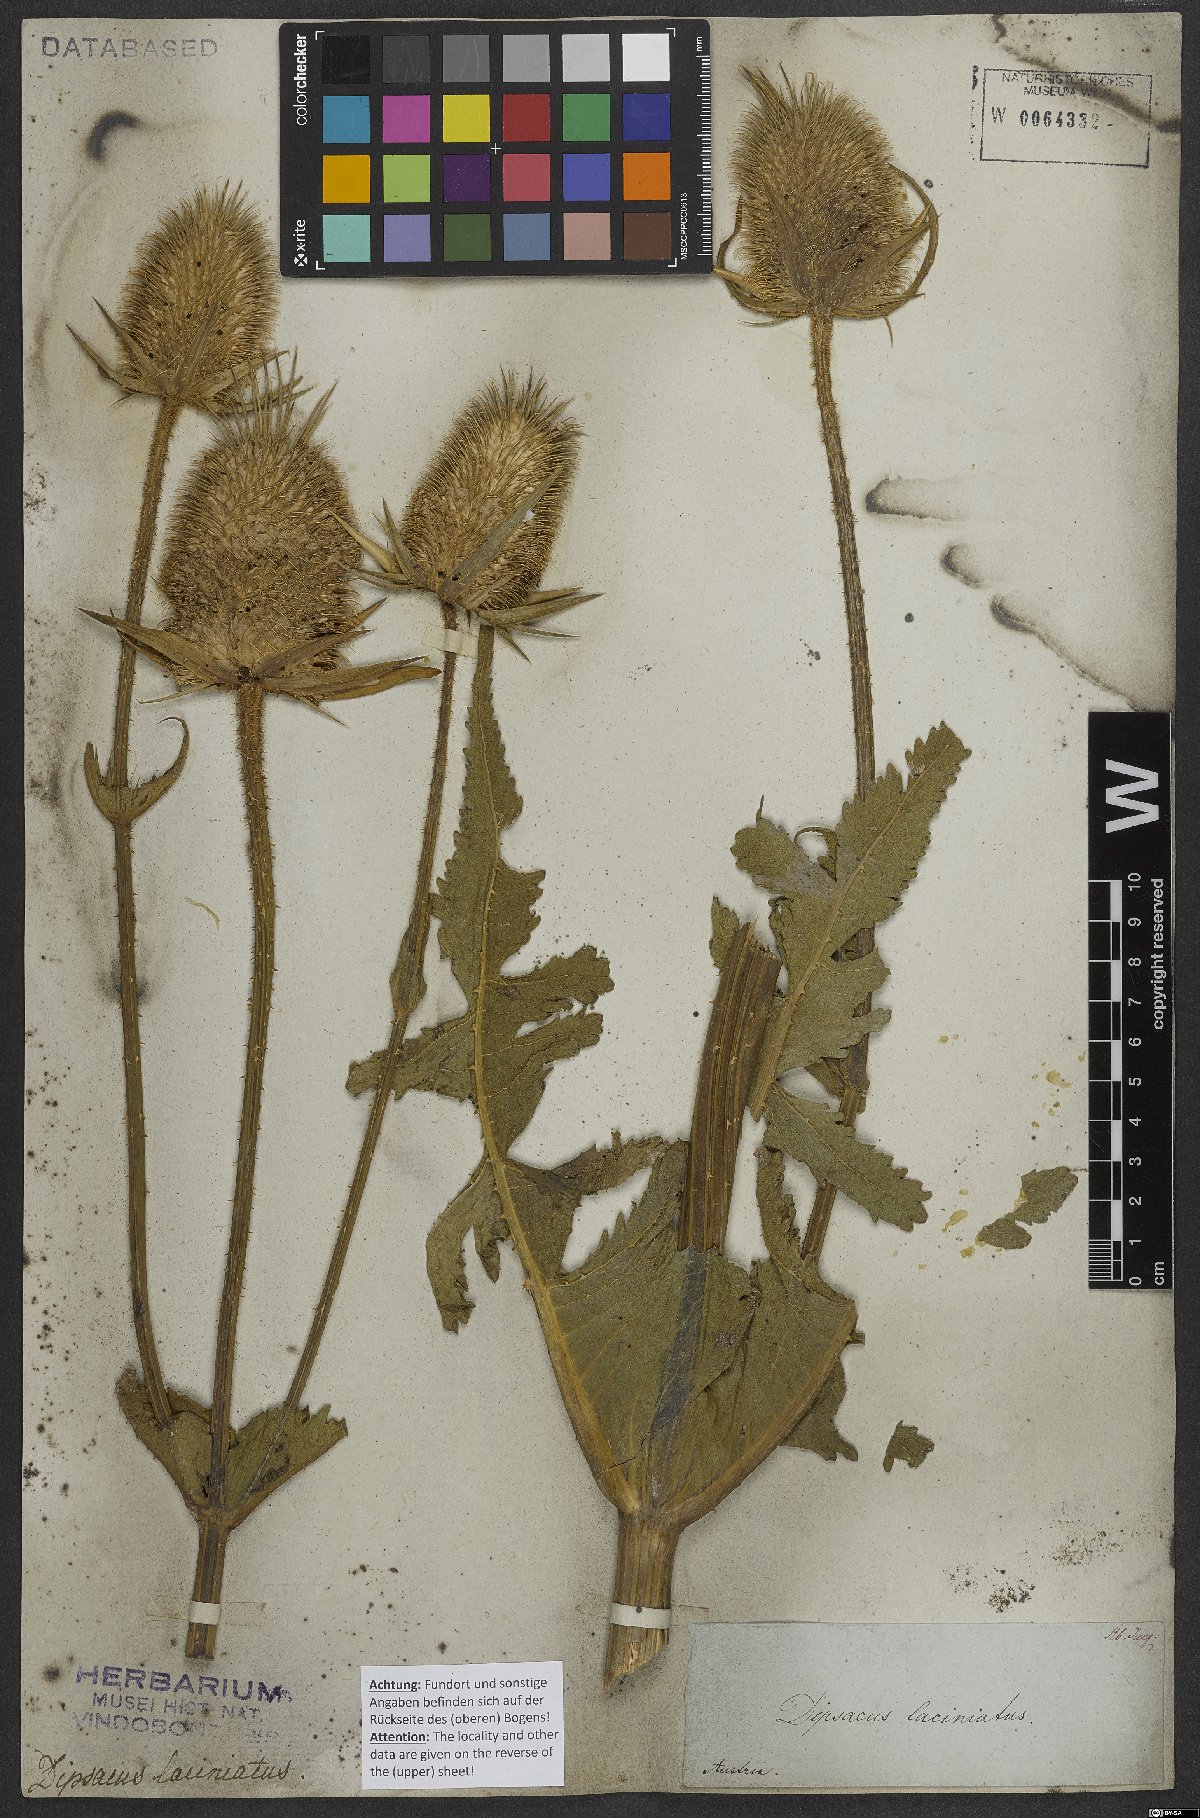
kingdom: Plantae
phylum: Tracheophyta
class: Magnoliopsida
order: Dipsacales
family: Caprifoliaceae
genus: Dipsacus
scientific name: Dipsacus laciniatus
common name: Cut-leaved teasel
